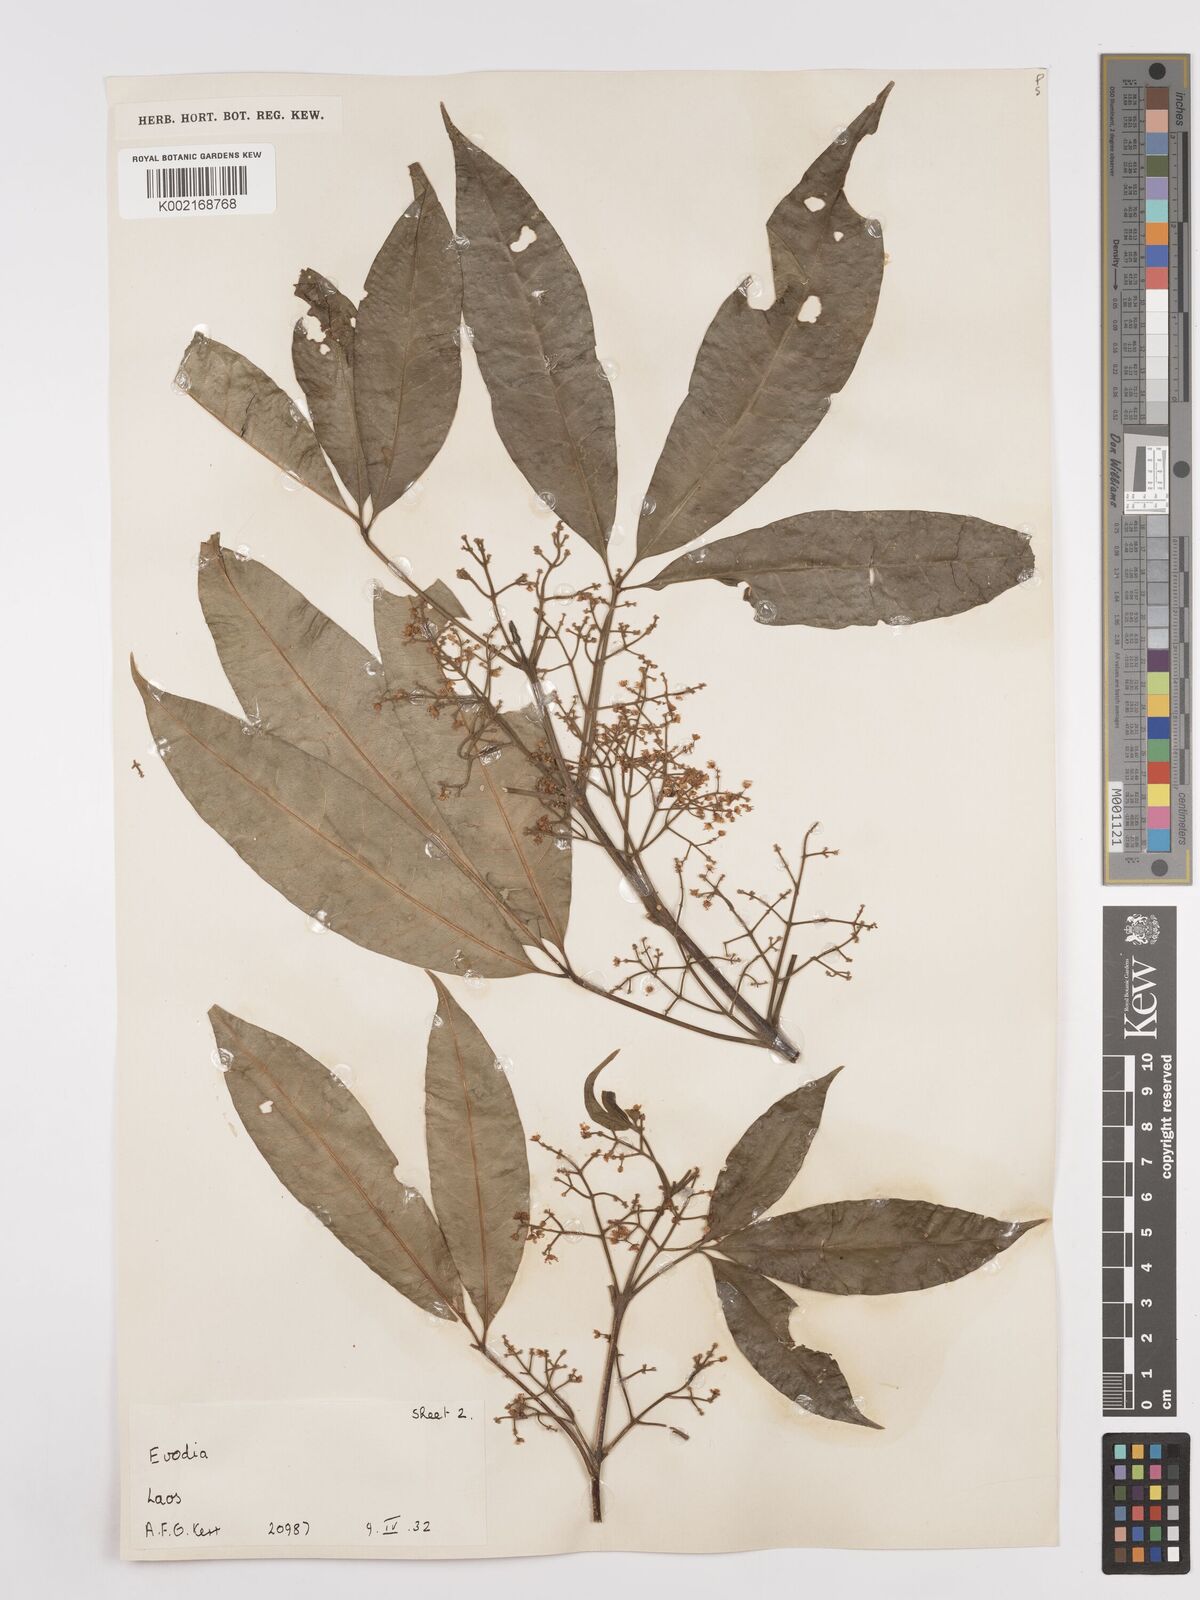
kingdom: Plantae
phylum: Tracheophyta
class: Magnoliopsida
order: Sapindales
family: Rutaceae
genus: Euodia
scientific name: Euodia
